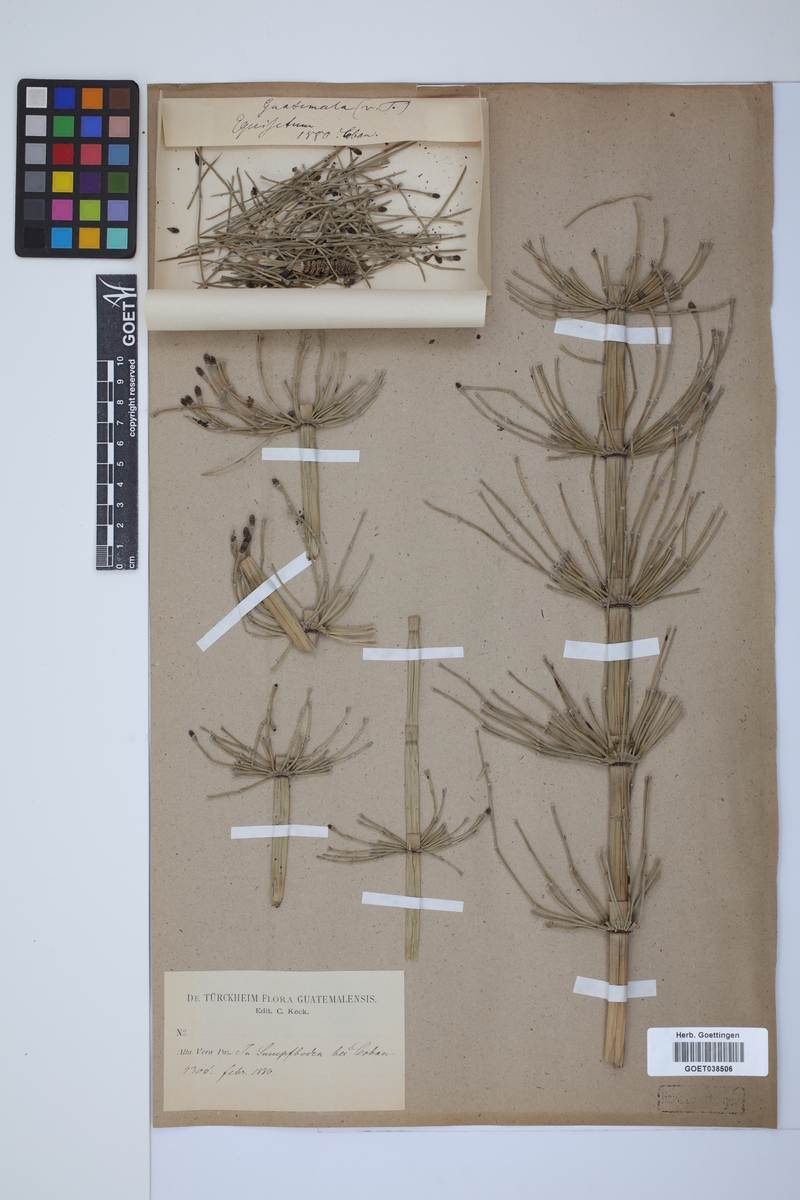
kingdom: Plantae
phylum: Tracheophyta
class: Polypodiopsida
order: Equisetales
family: Equisetaceae
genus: Equisetum
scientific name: Equisetum giganteum
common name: Giant horsetail
